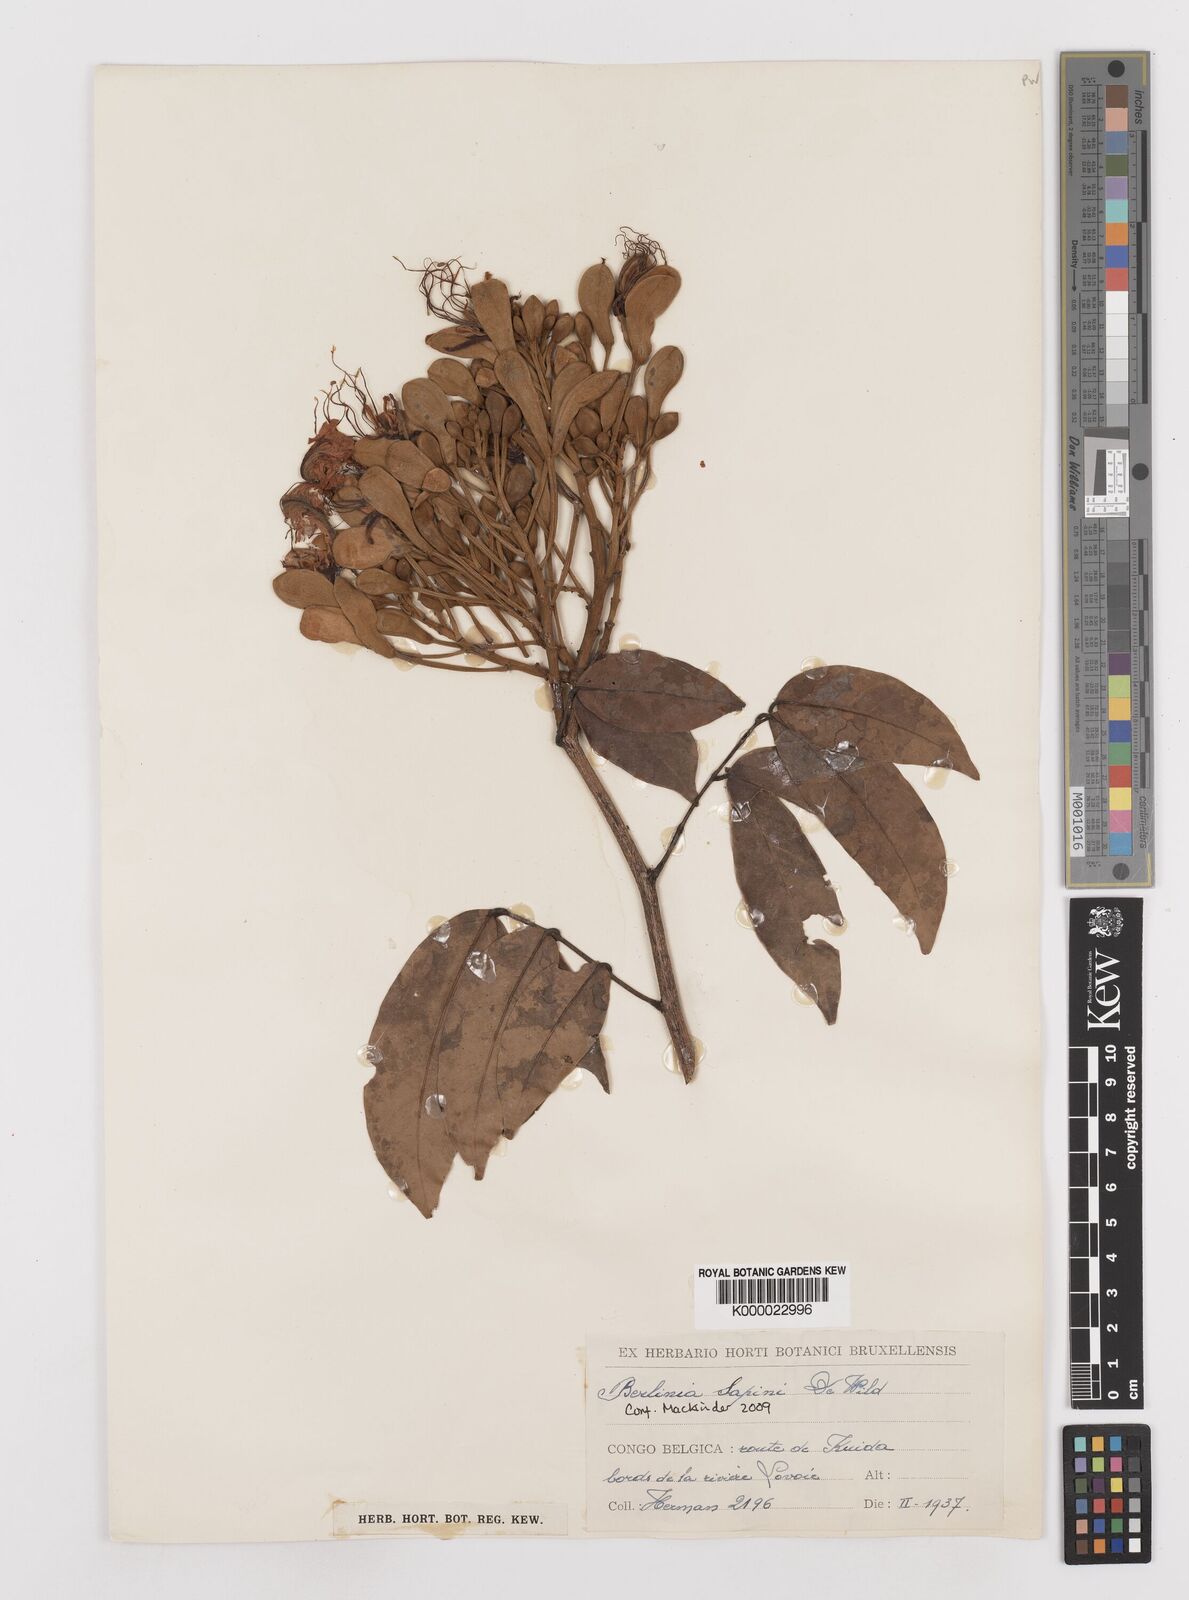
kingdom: Plantae
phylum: Tracheophyta
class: Magnoliopsida
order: Fabales
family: Fabaceae
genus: Berlinia
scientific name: Berlinia sapinii
